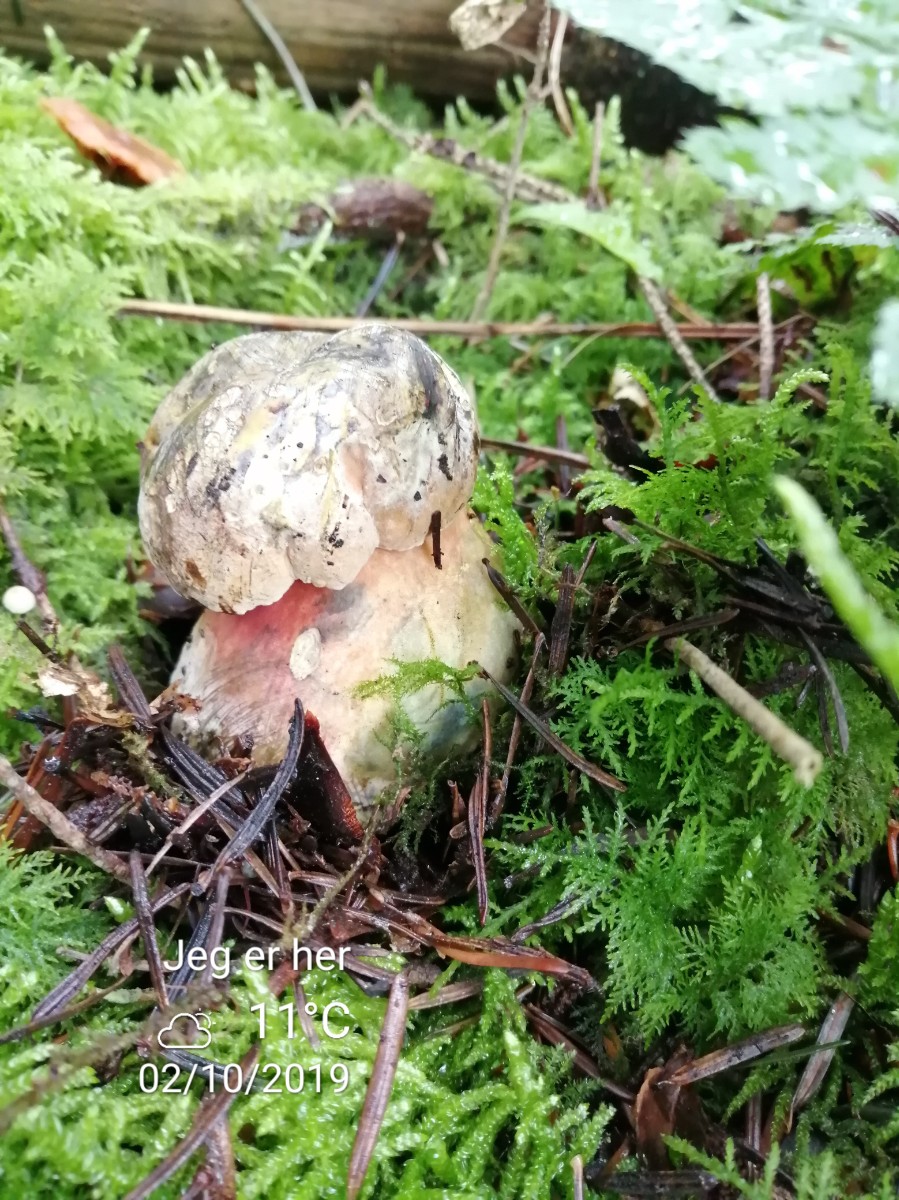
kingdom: Fungi
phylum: Basidiomycota
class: Agaricomycetes
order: Boletales
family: Boletaceae
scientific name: Boletaceae
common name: rørhatfamilien
